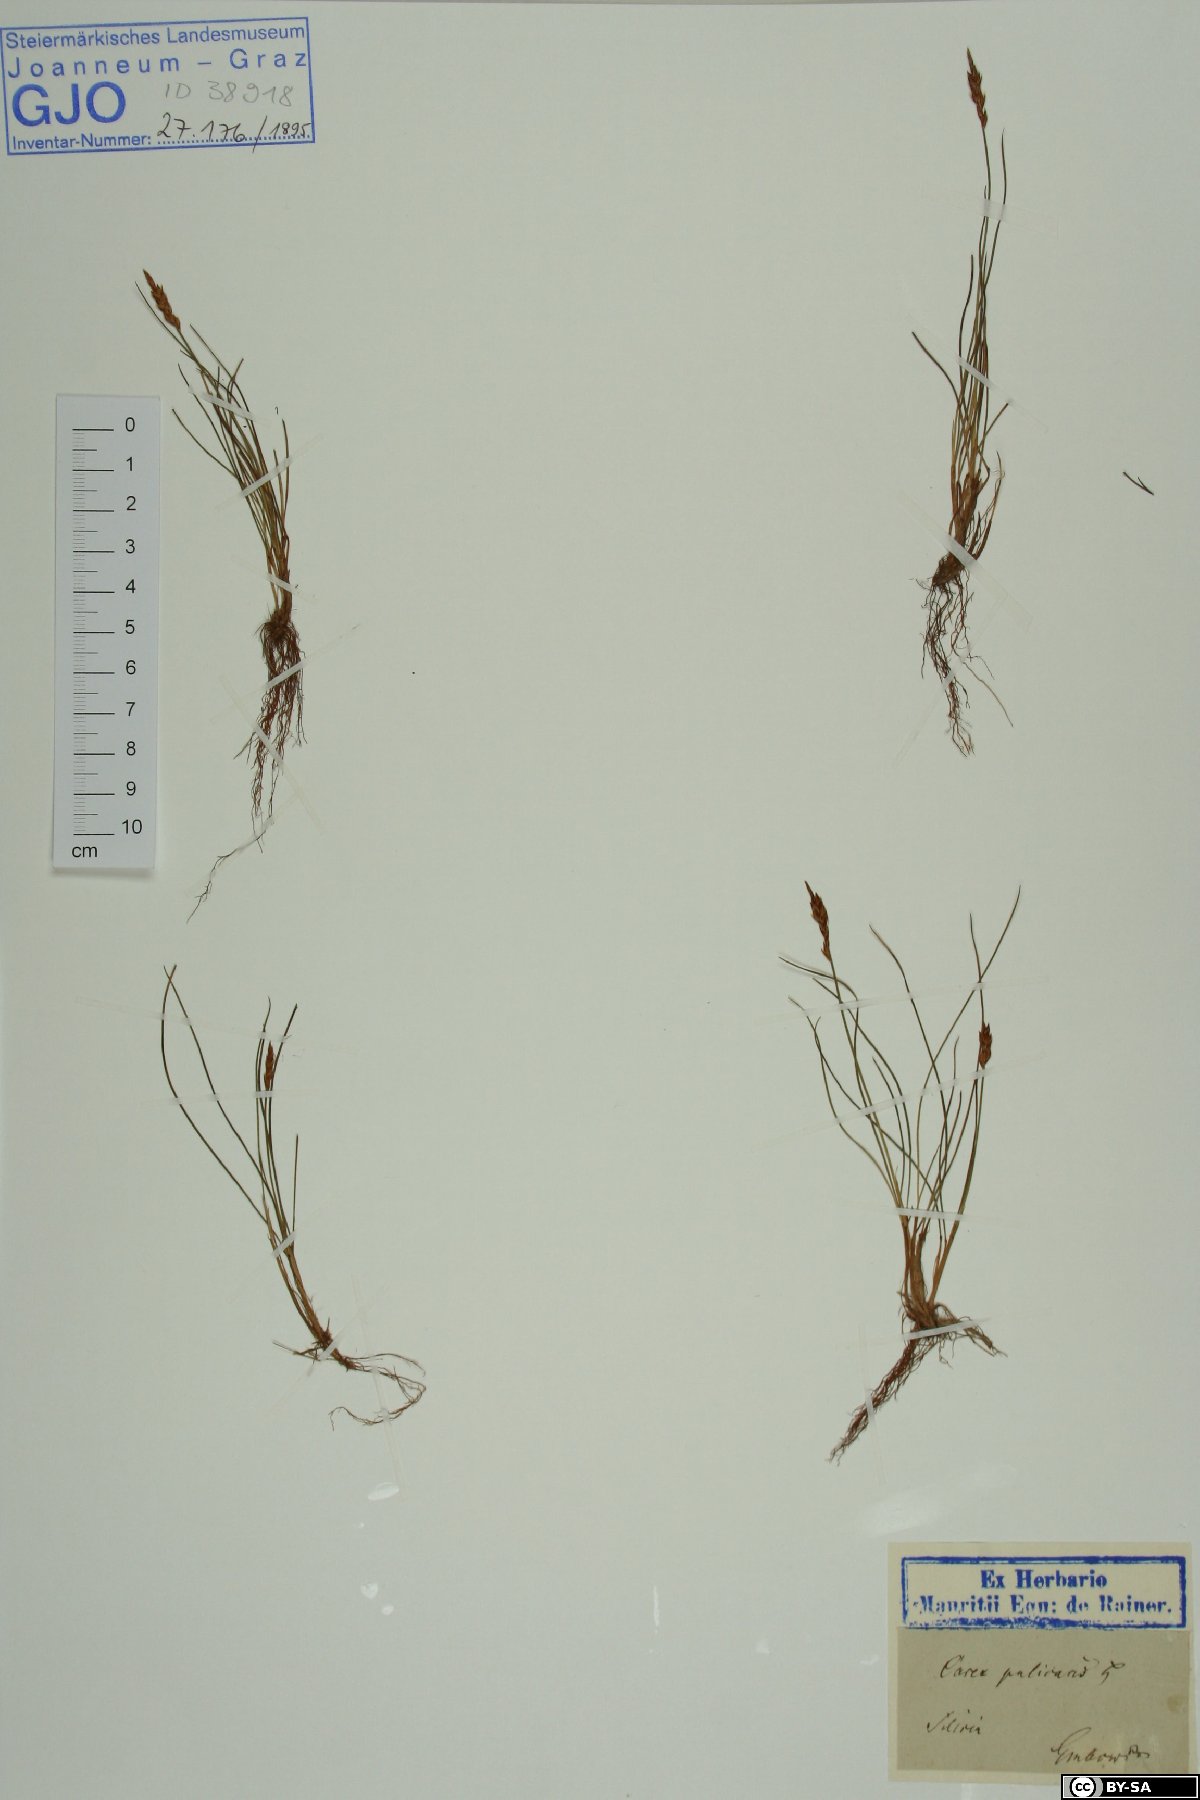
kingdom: Plantae
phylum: Tracheophyta
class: Liliopsida
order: Poales
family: Cyperaceae
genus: Carex
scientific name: Carex pulicaris
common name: Flea sedge
